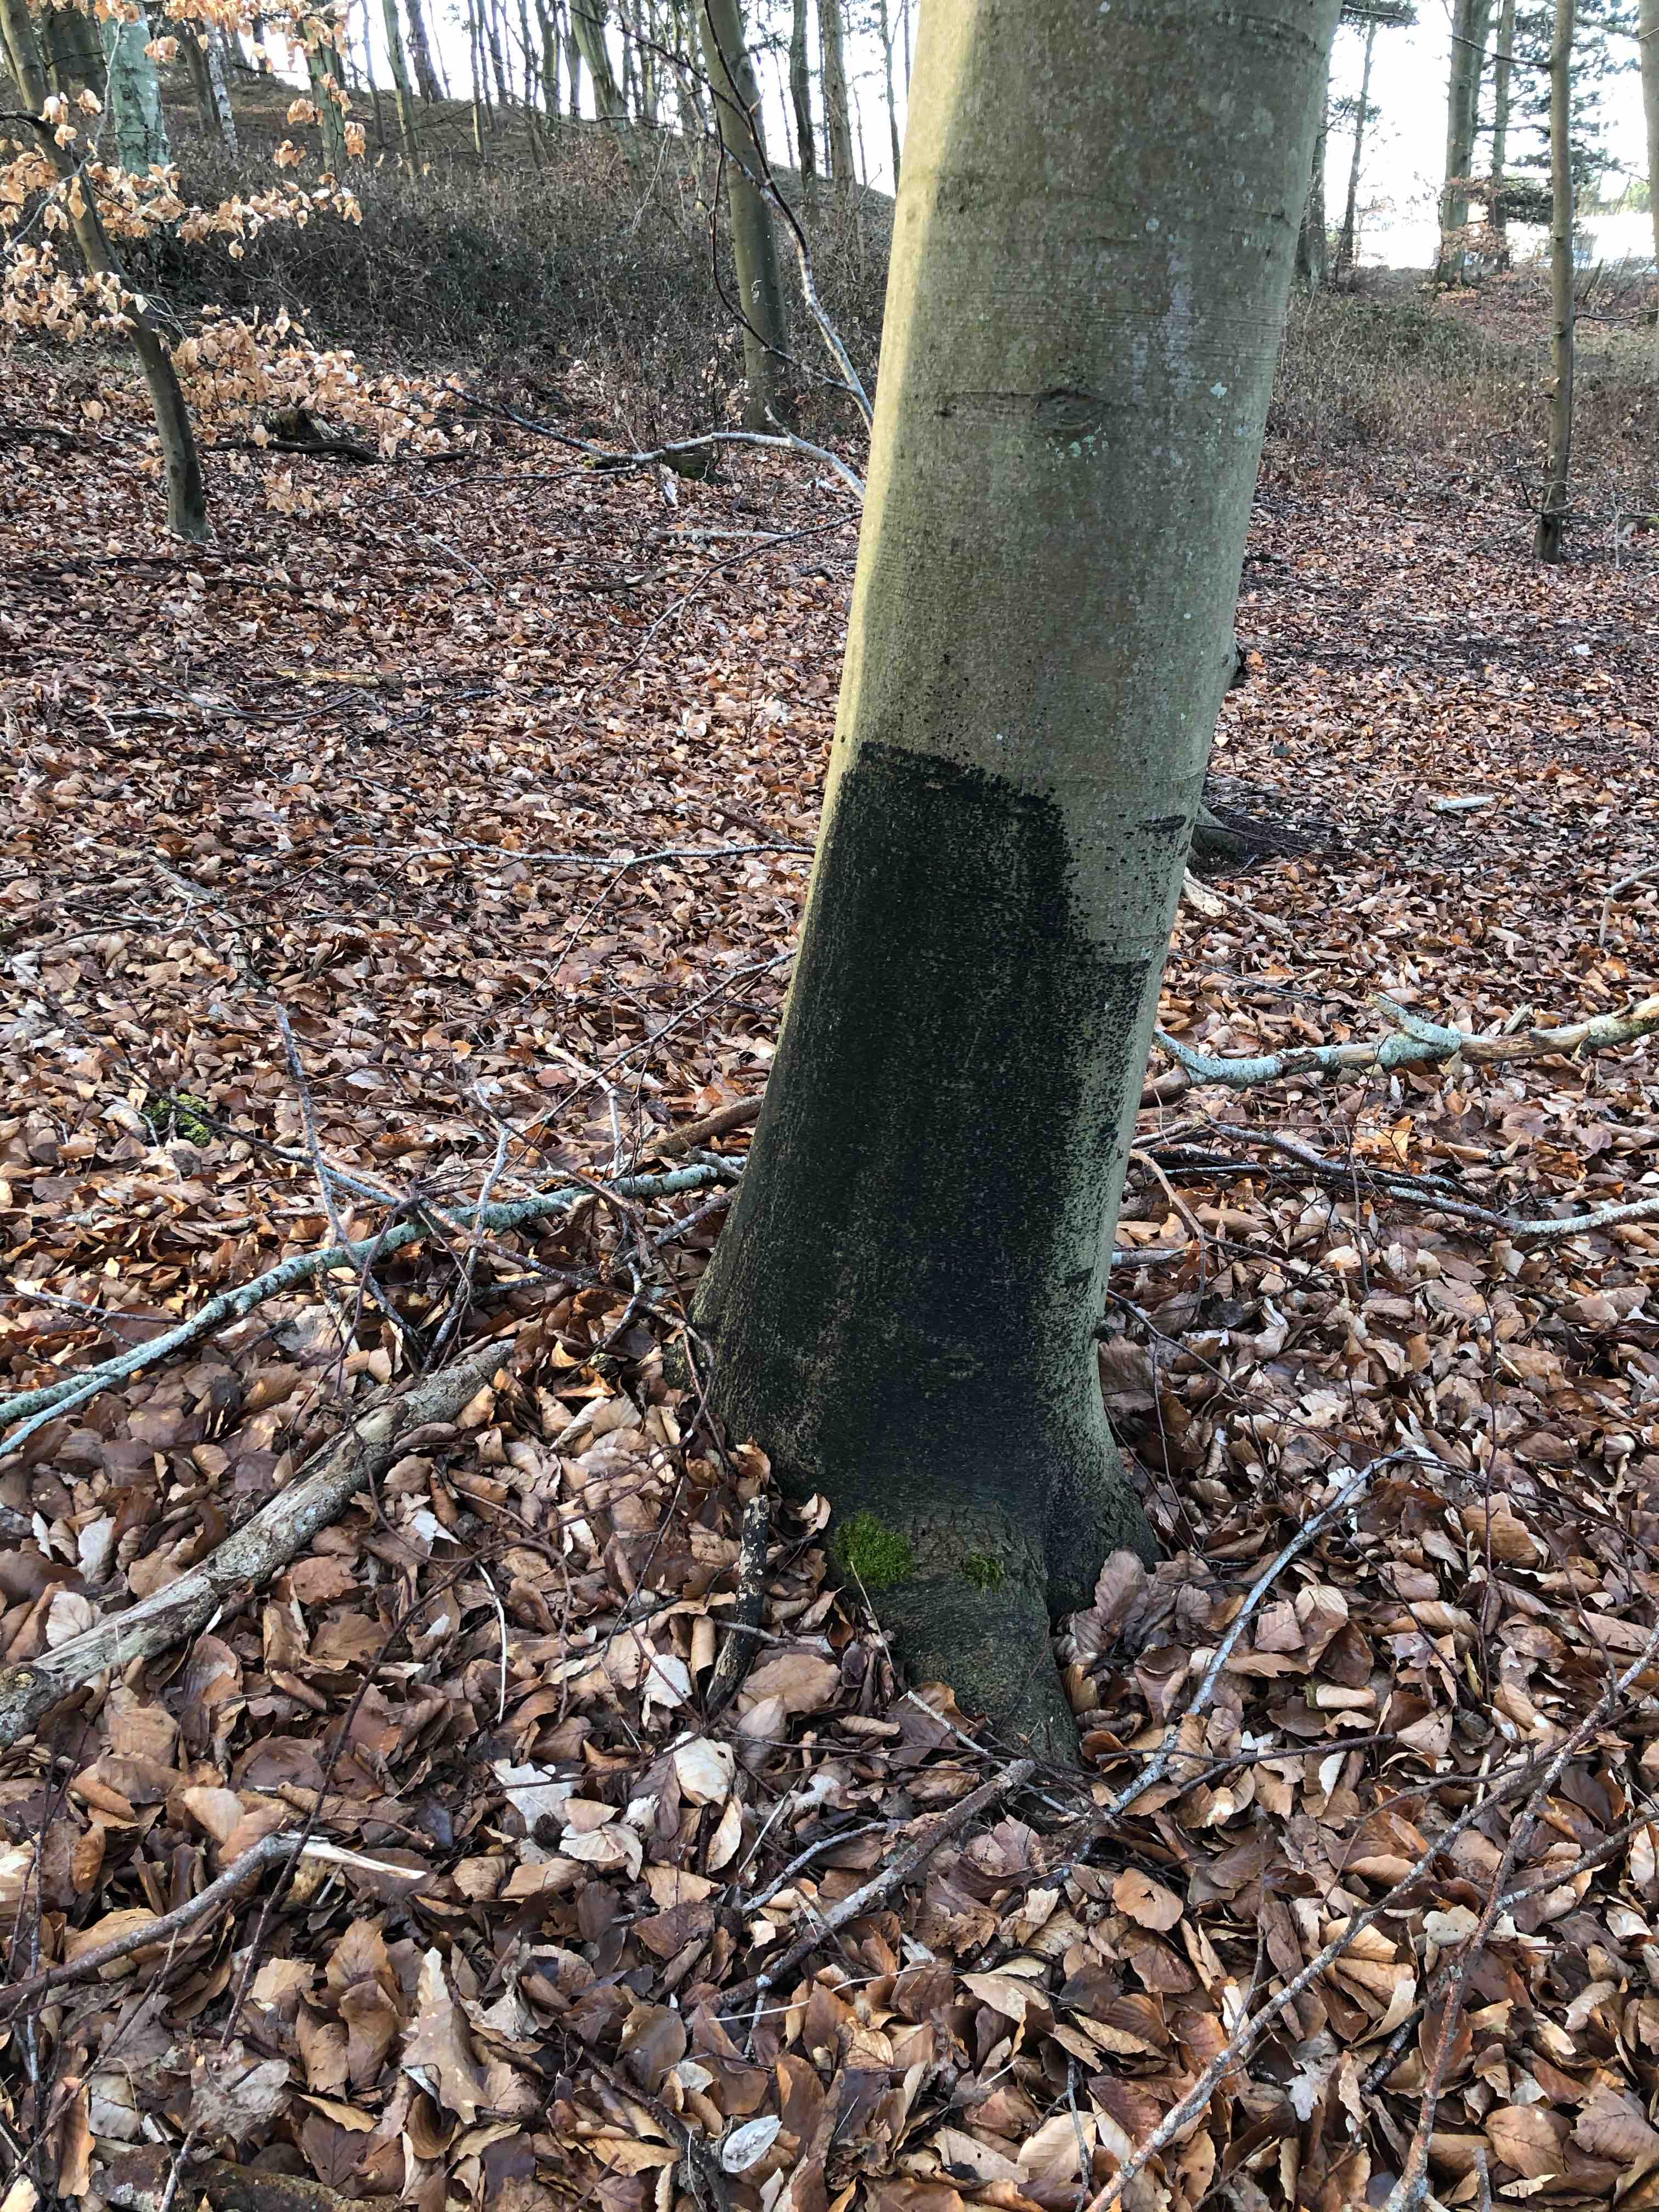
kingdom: Fungi
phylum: Ascomycota
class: Leotiomycetes
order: Rhytismatales
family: Ascodichaenaceae
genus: Ascodichaena
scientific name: Ascodichaena rugosa
